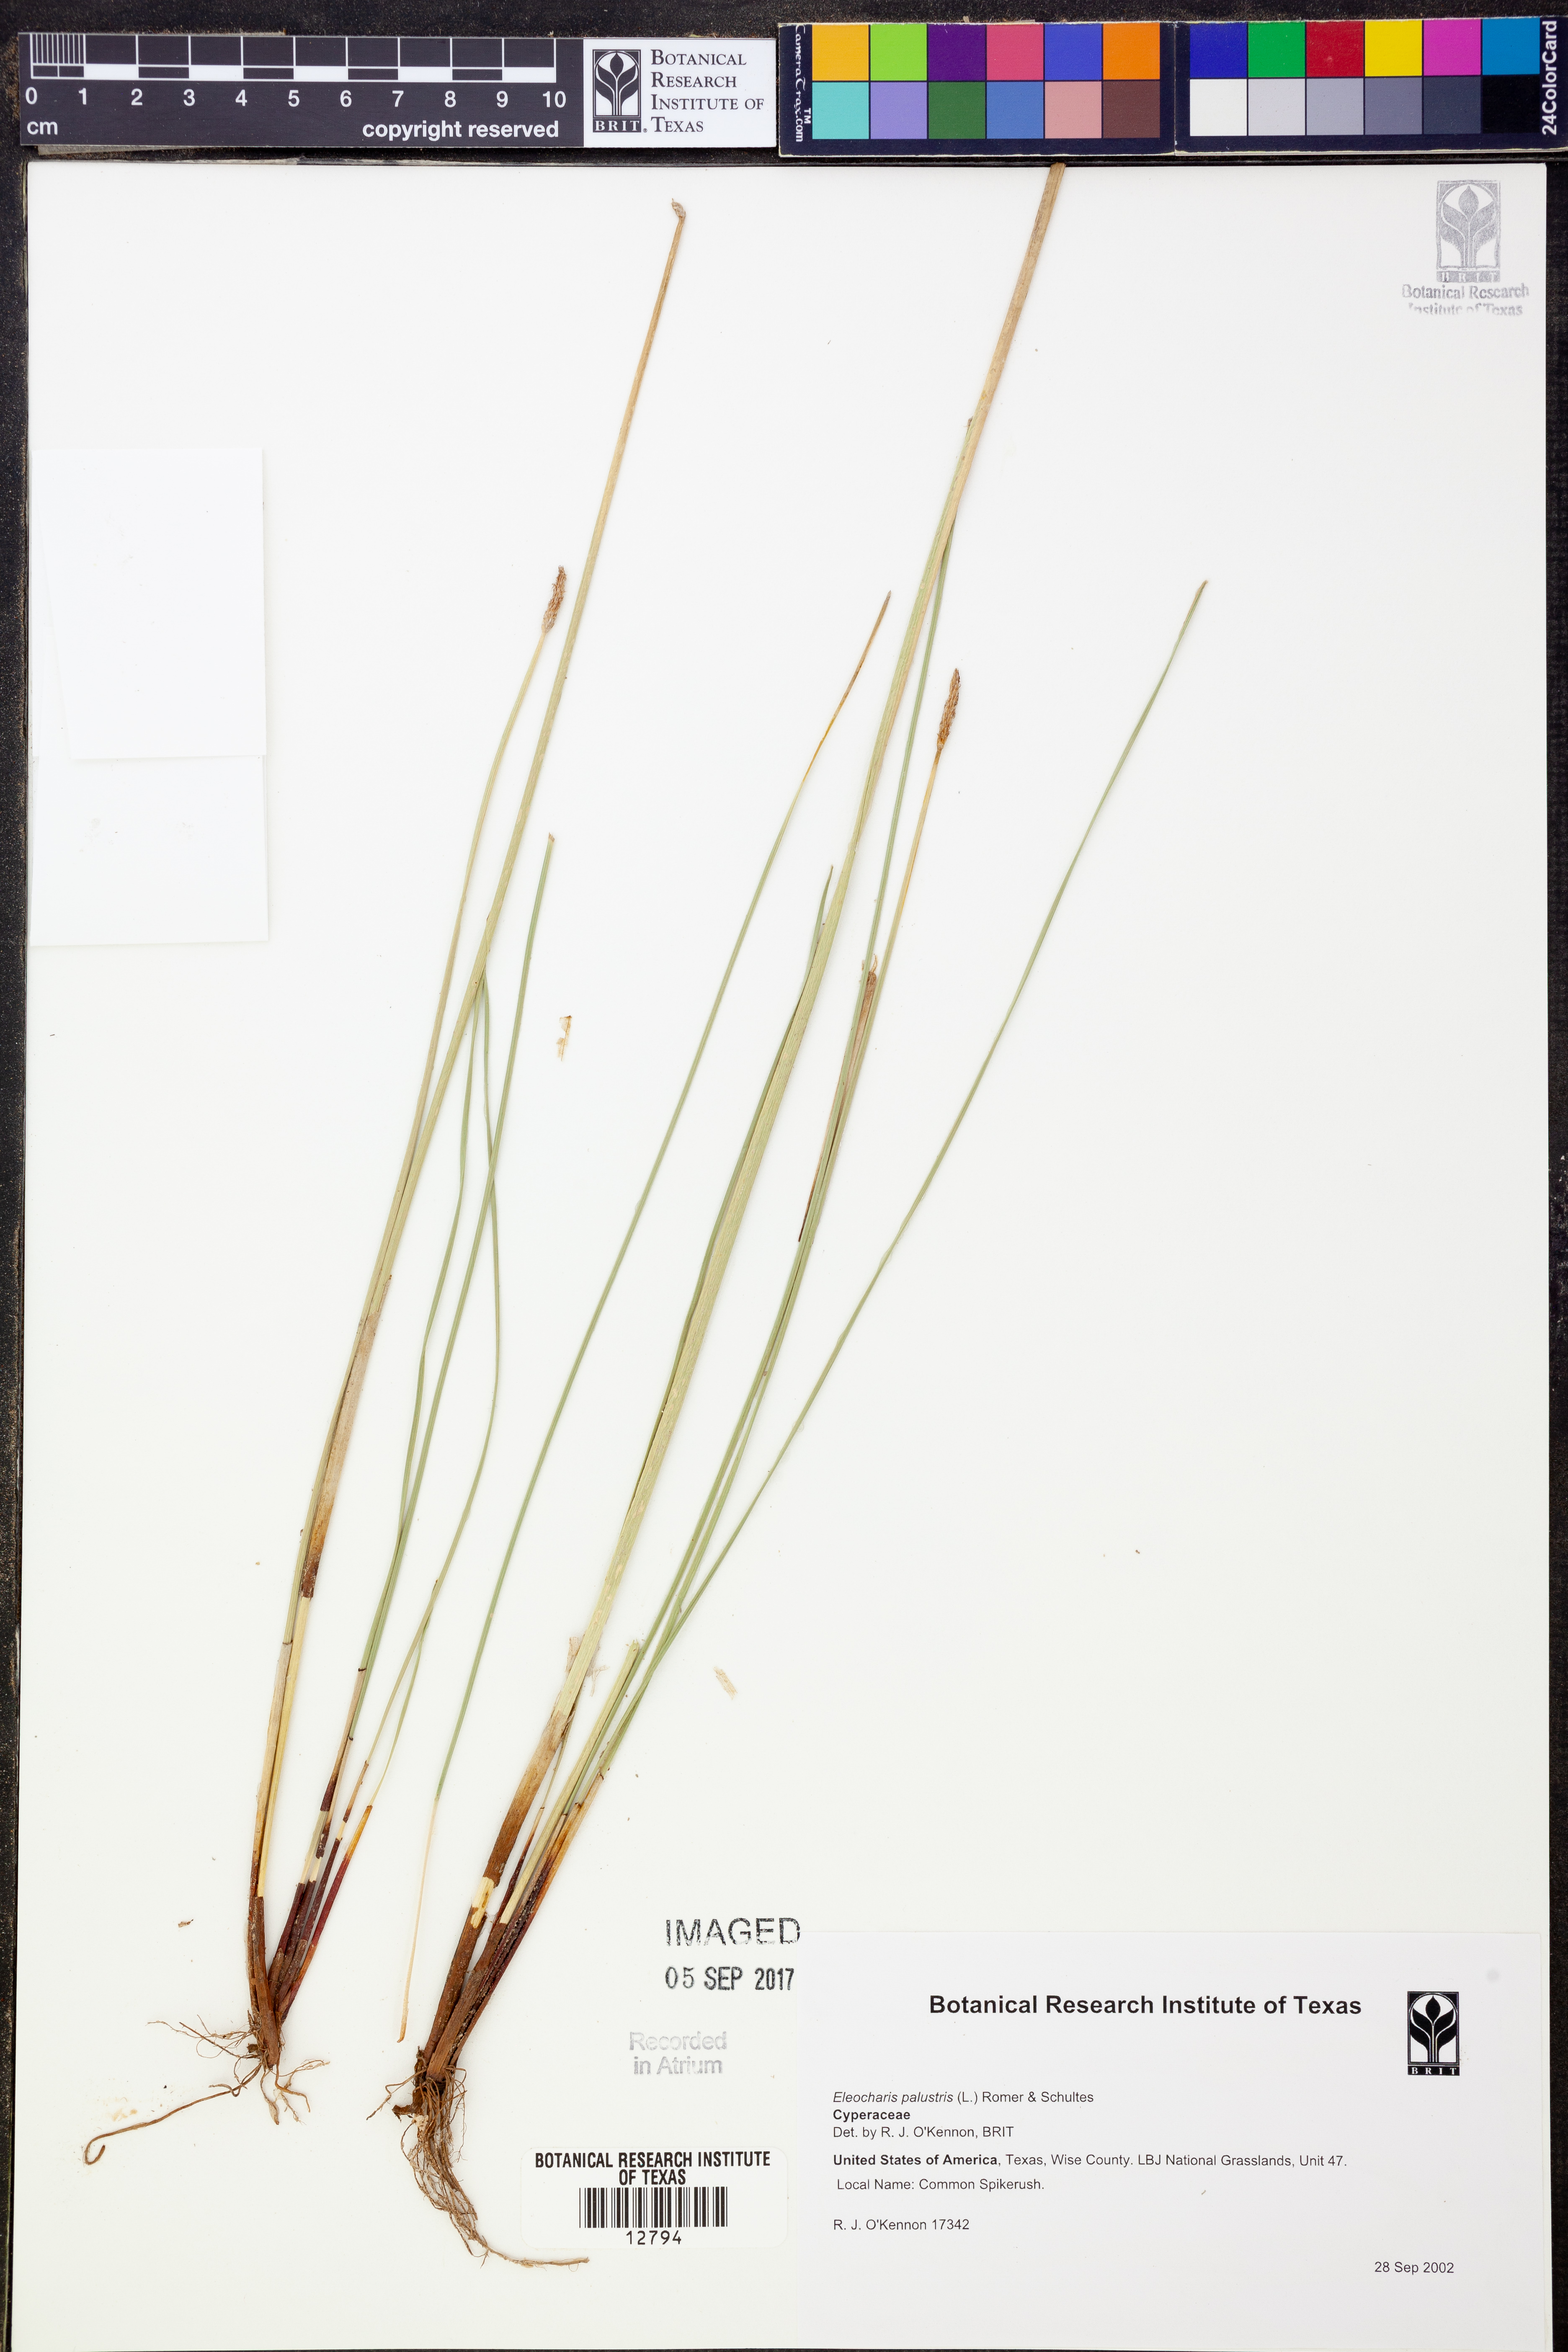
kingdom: Plantae
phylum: Tracheophyta
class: Liliopsida
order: Poales
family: Cyperaceae
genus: Eleocharis
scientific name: Eleocharis palustris
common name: Common spike-rush
